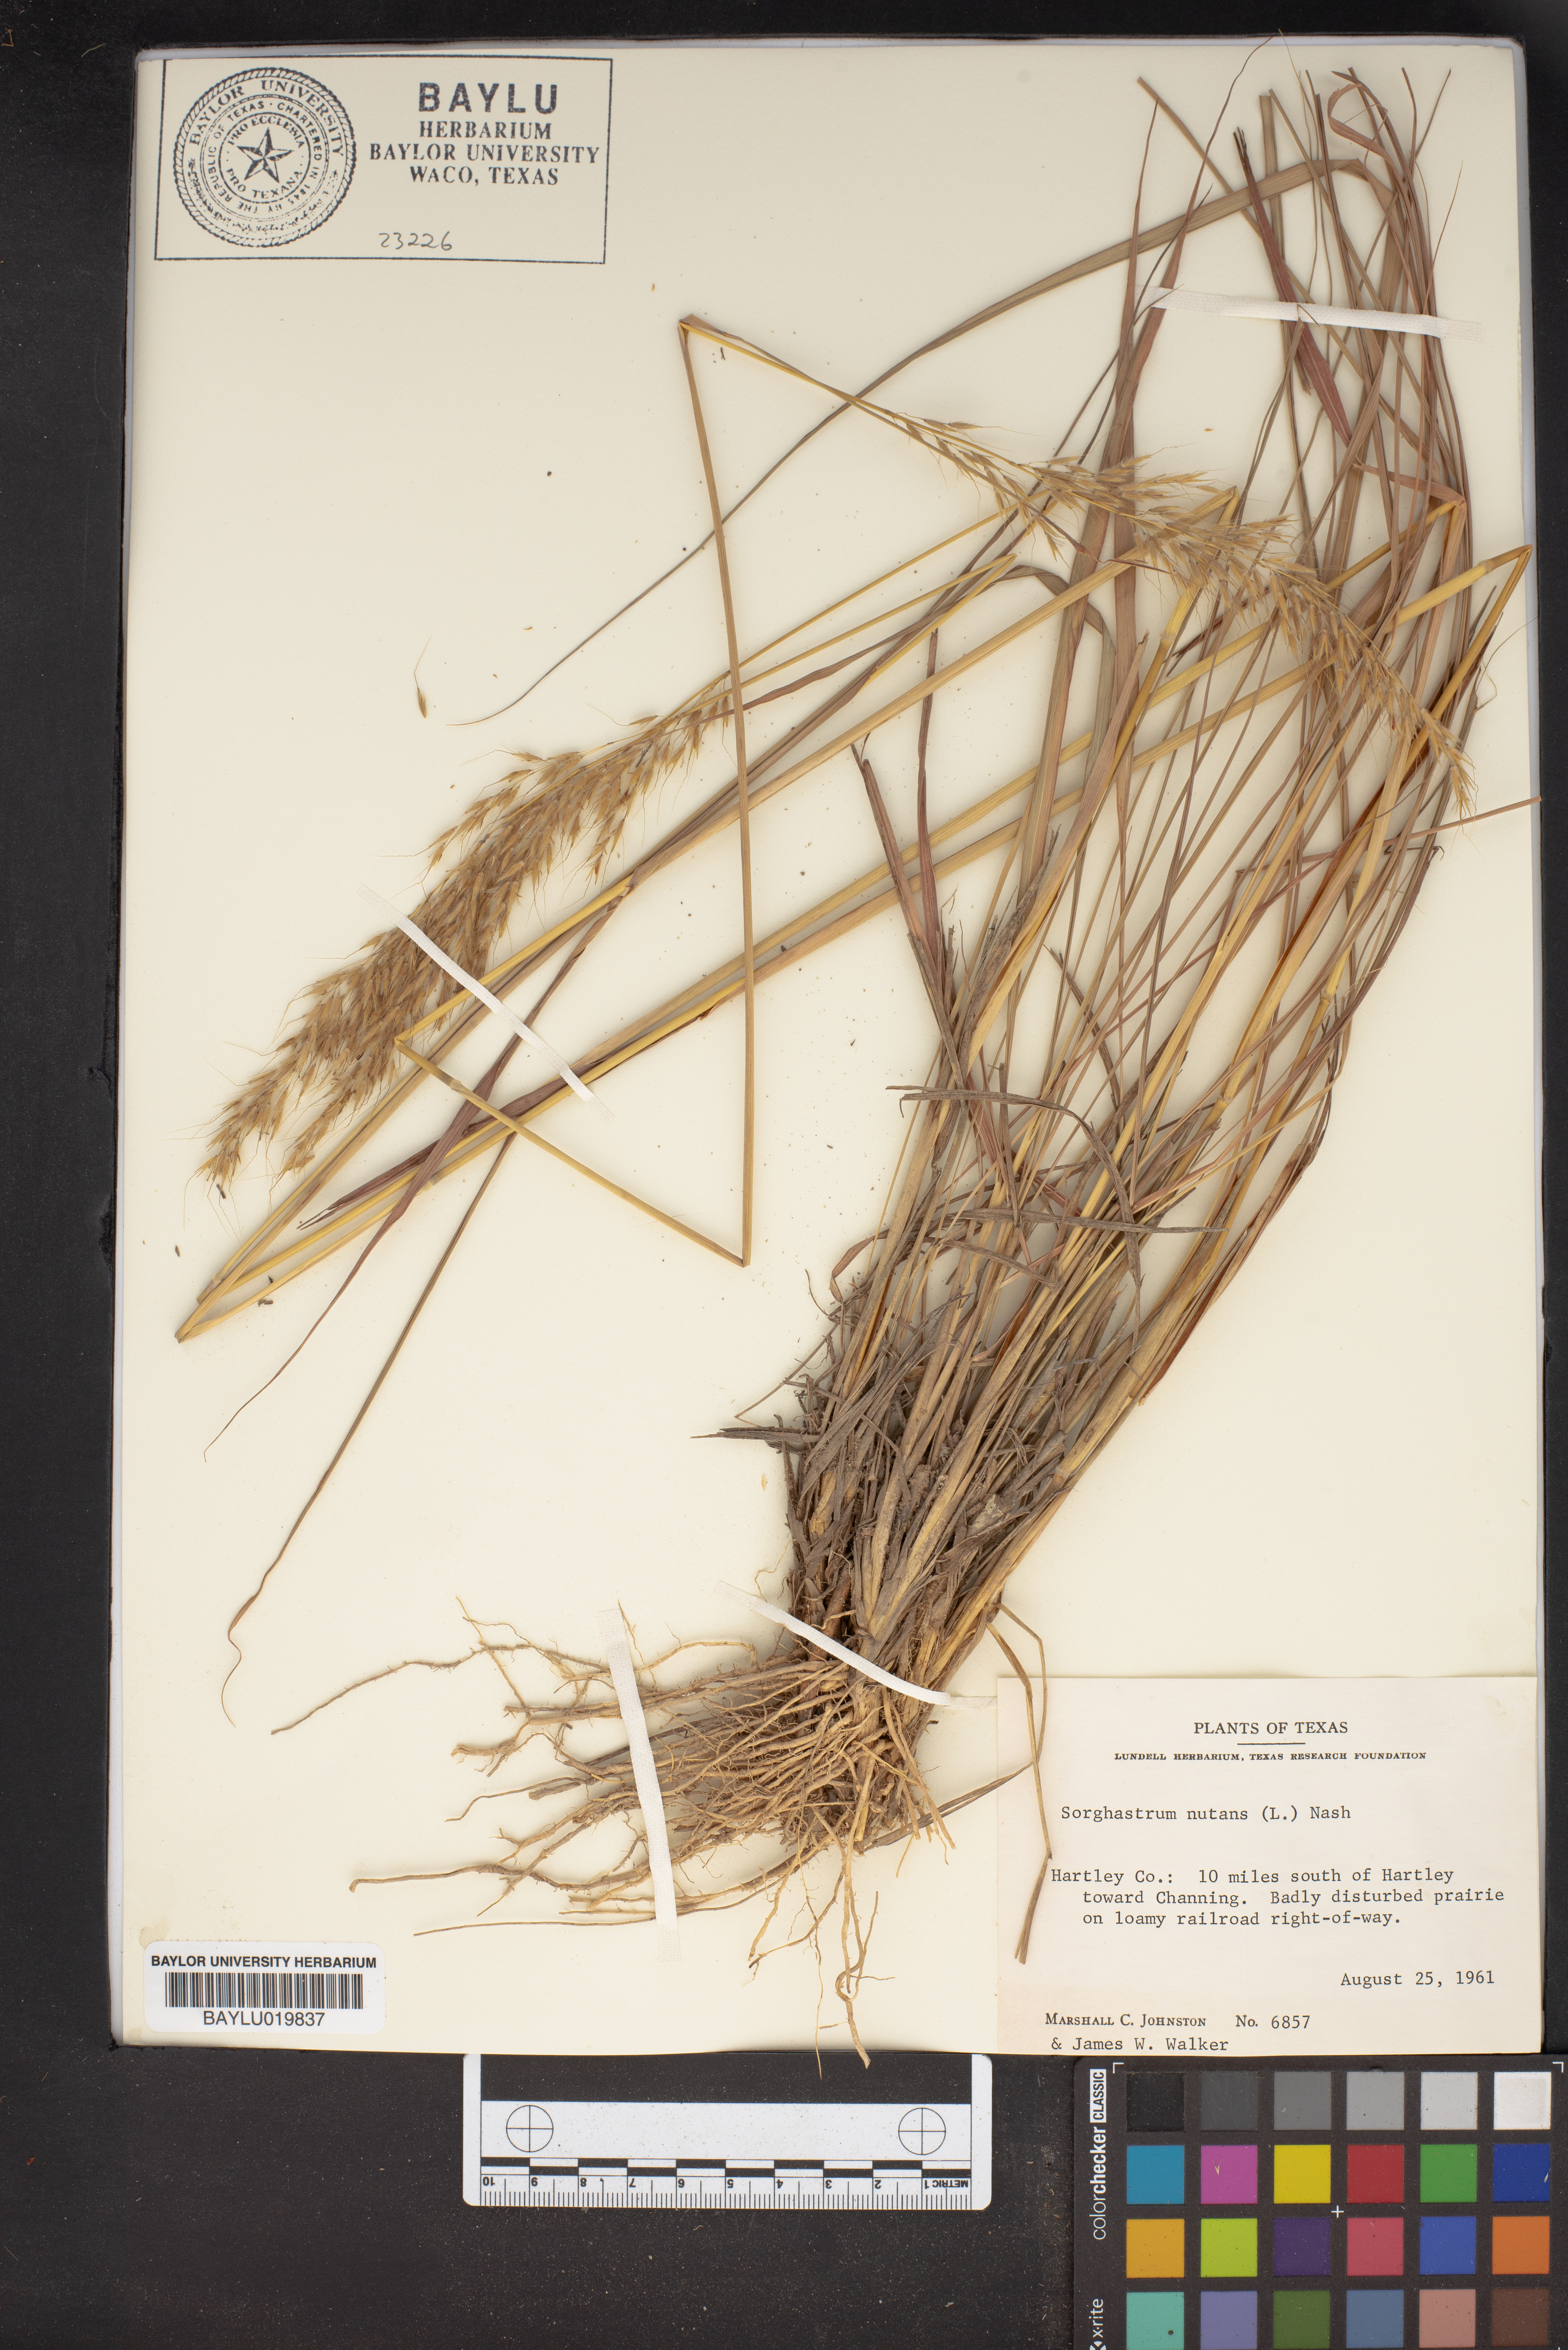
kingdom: Plantae
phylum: Tracheophyta
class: Liliopsida
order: Poales
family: Poaceae
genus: Sorghastrum
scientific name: Sorghastrum nutans
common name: Indian grass
